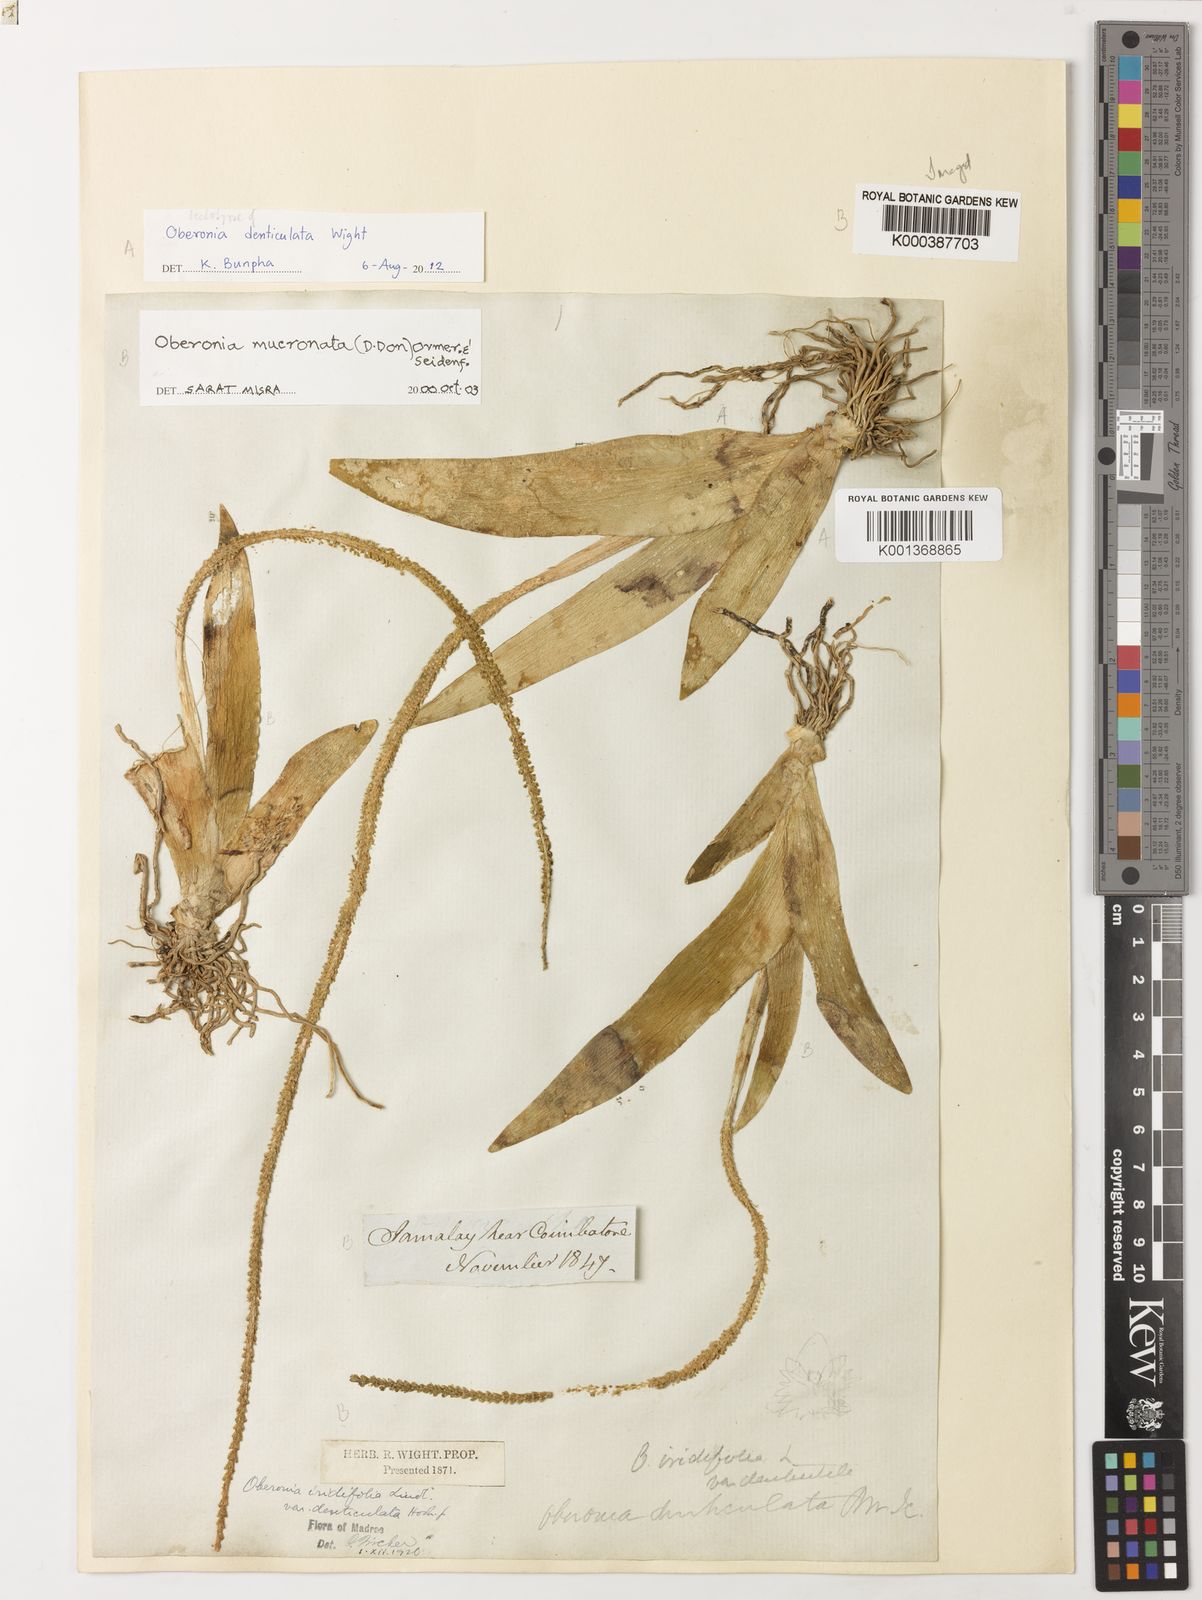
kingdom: Plantae
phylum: Tracheophyta
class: Liliopsida
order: Asparagales
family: Orchidaceae
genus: Oberonia
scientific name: Oberonia mucronata
